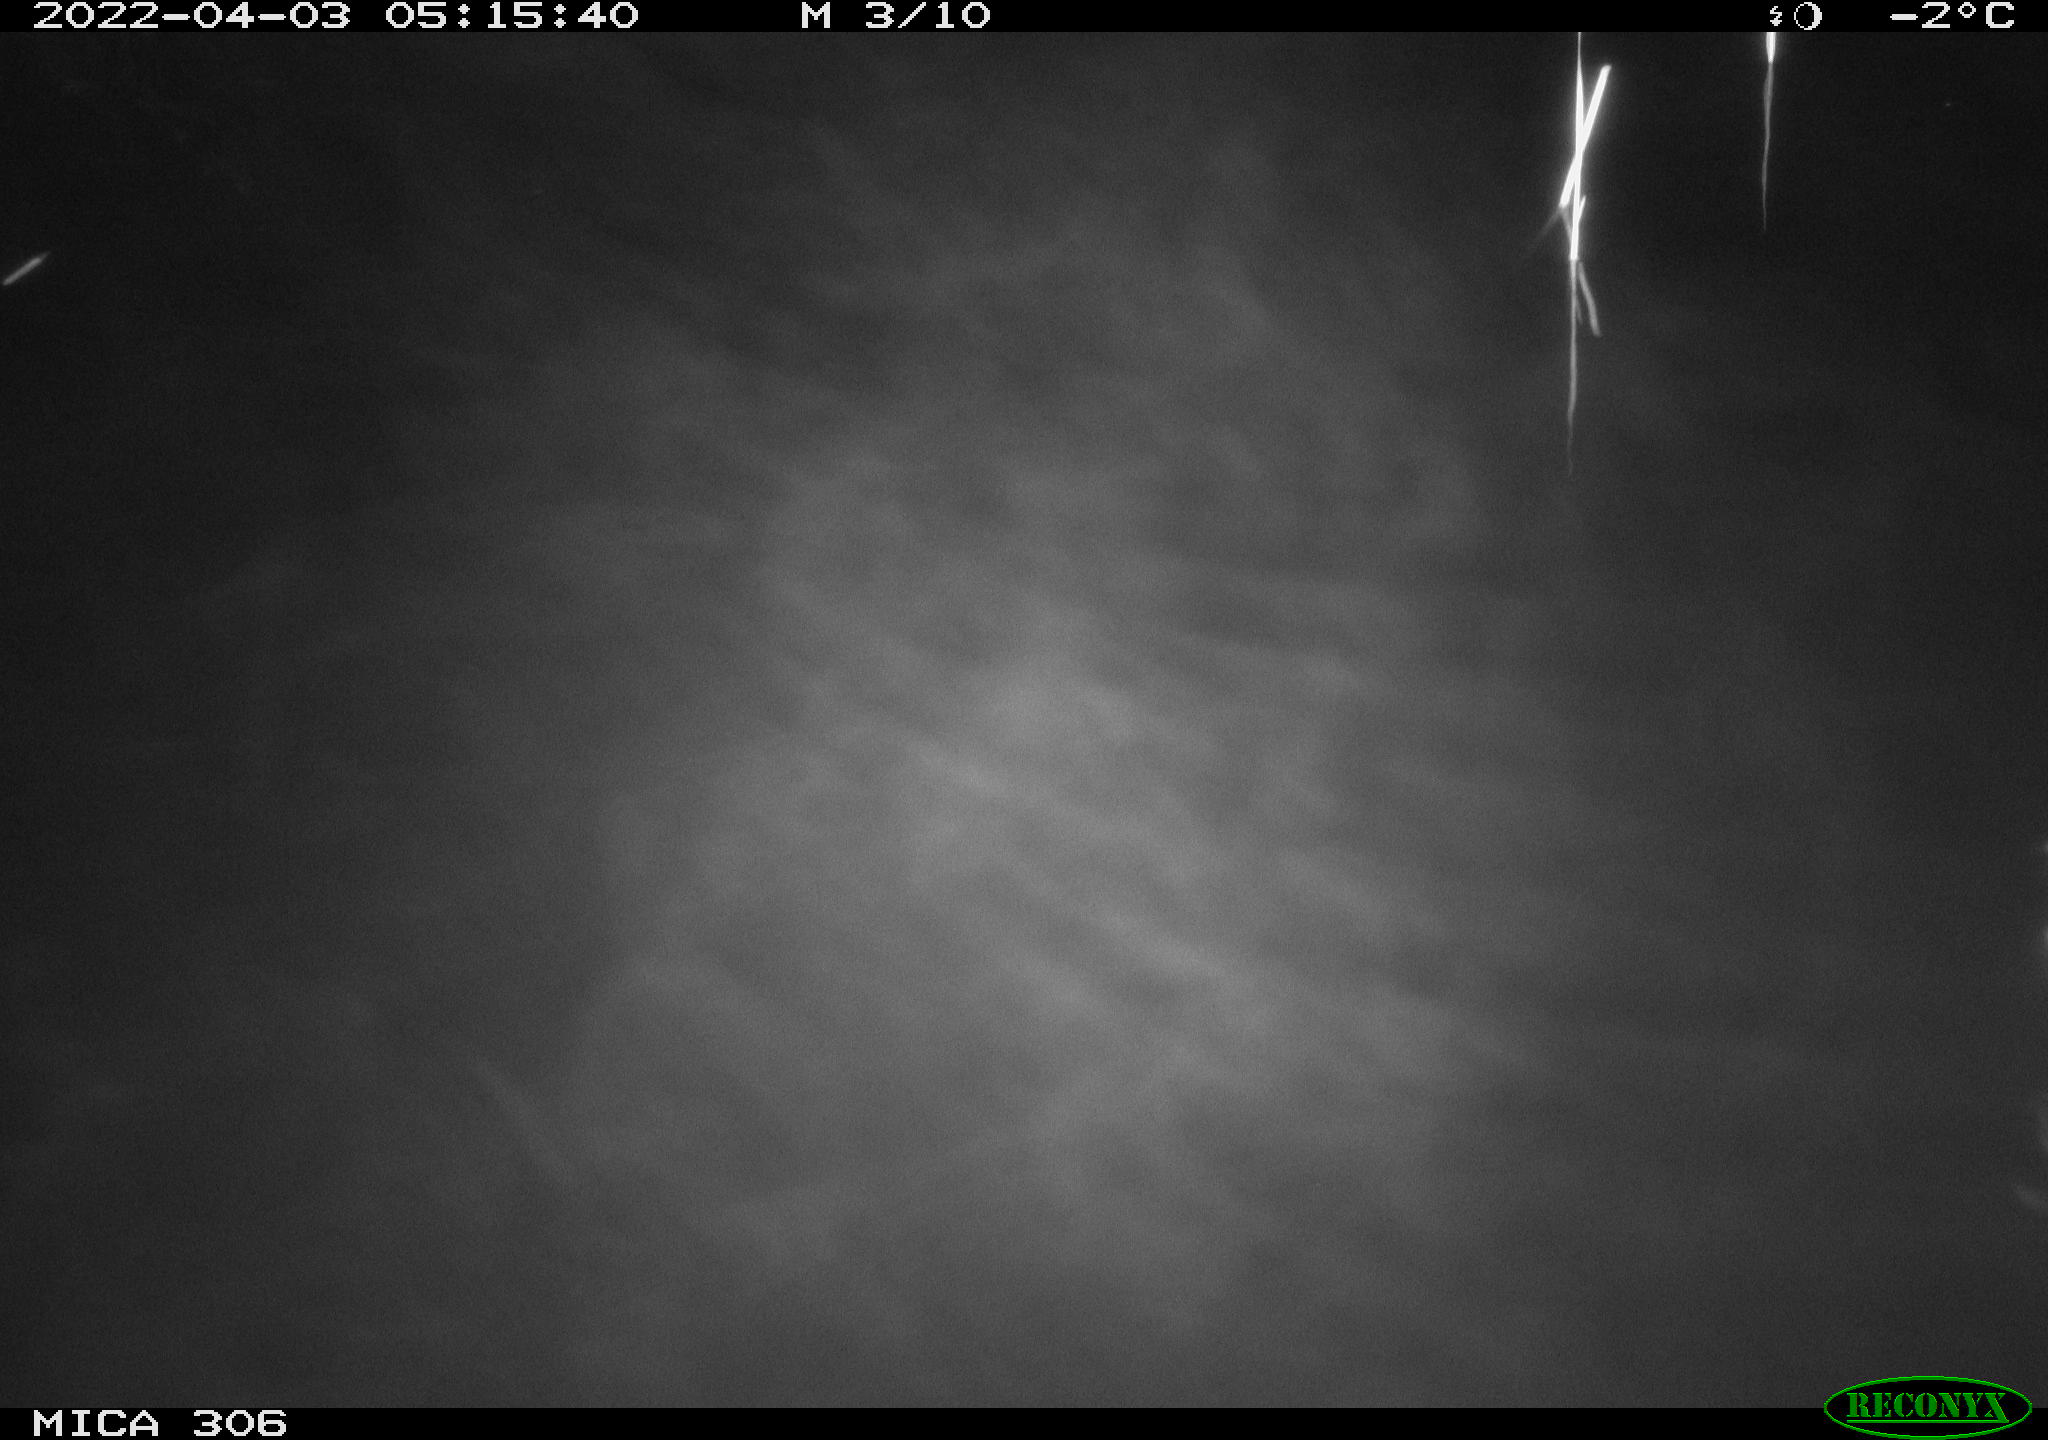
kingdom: Animalia
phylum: Chordata
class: Aves
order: Anseriformes
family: Anatidae
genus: Anas
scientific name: Anas platyrhynchos
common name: Mallard
